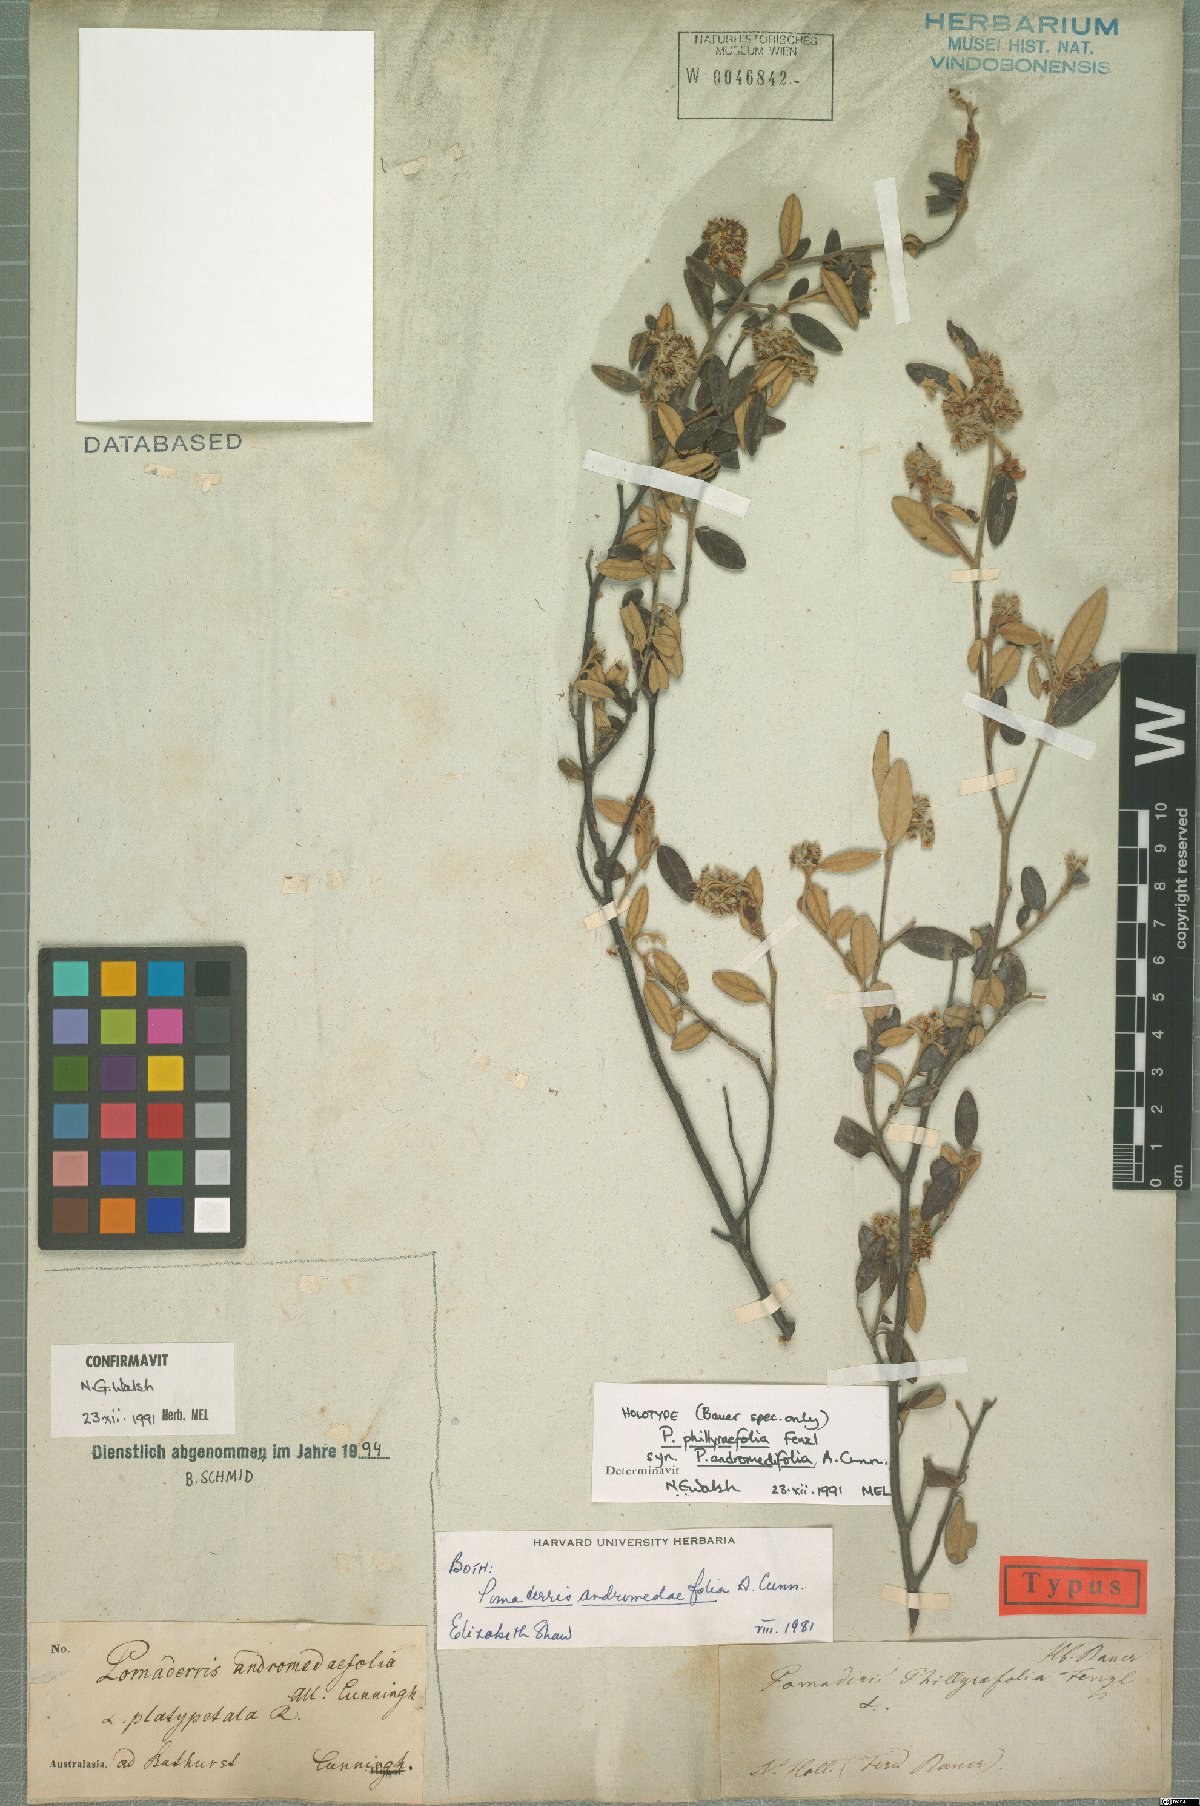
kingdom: Plantae
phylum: Tracheophyta
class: Magnoliopsida
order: Rosales
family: Rhamnaceae
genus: Pomaderris
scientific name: Pomaderris andromedifolia
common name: Yellow pomaderris
